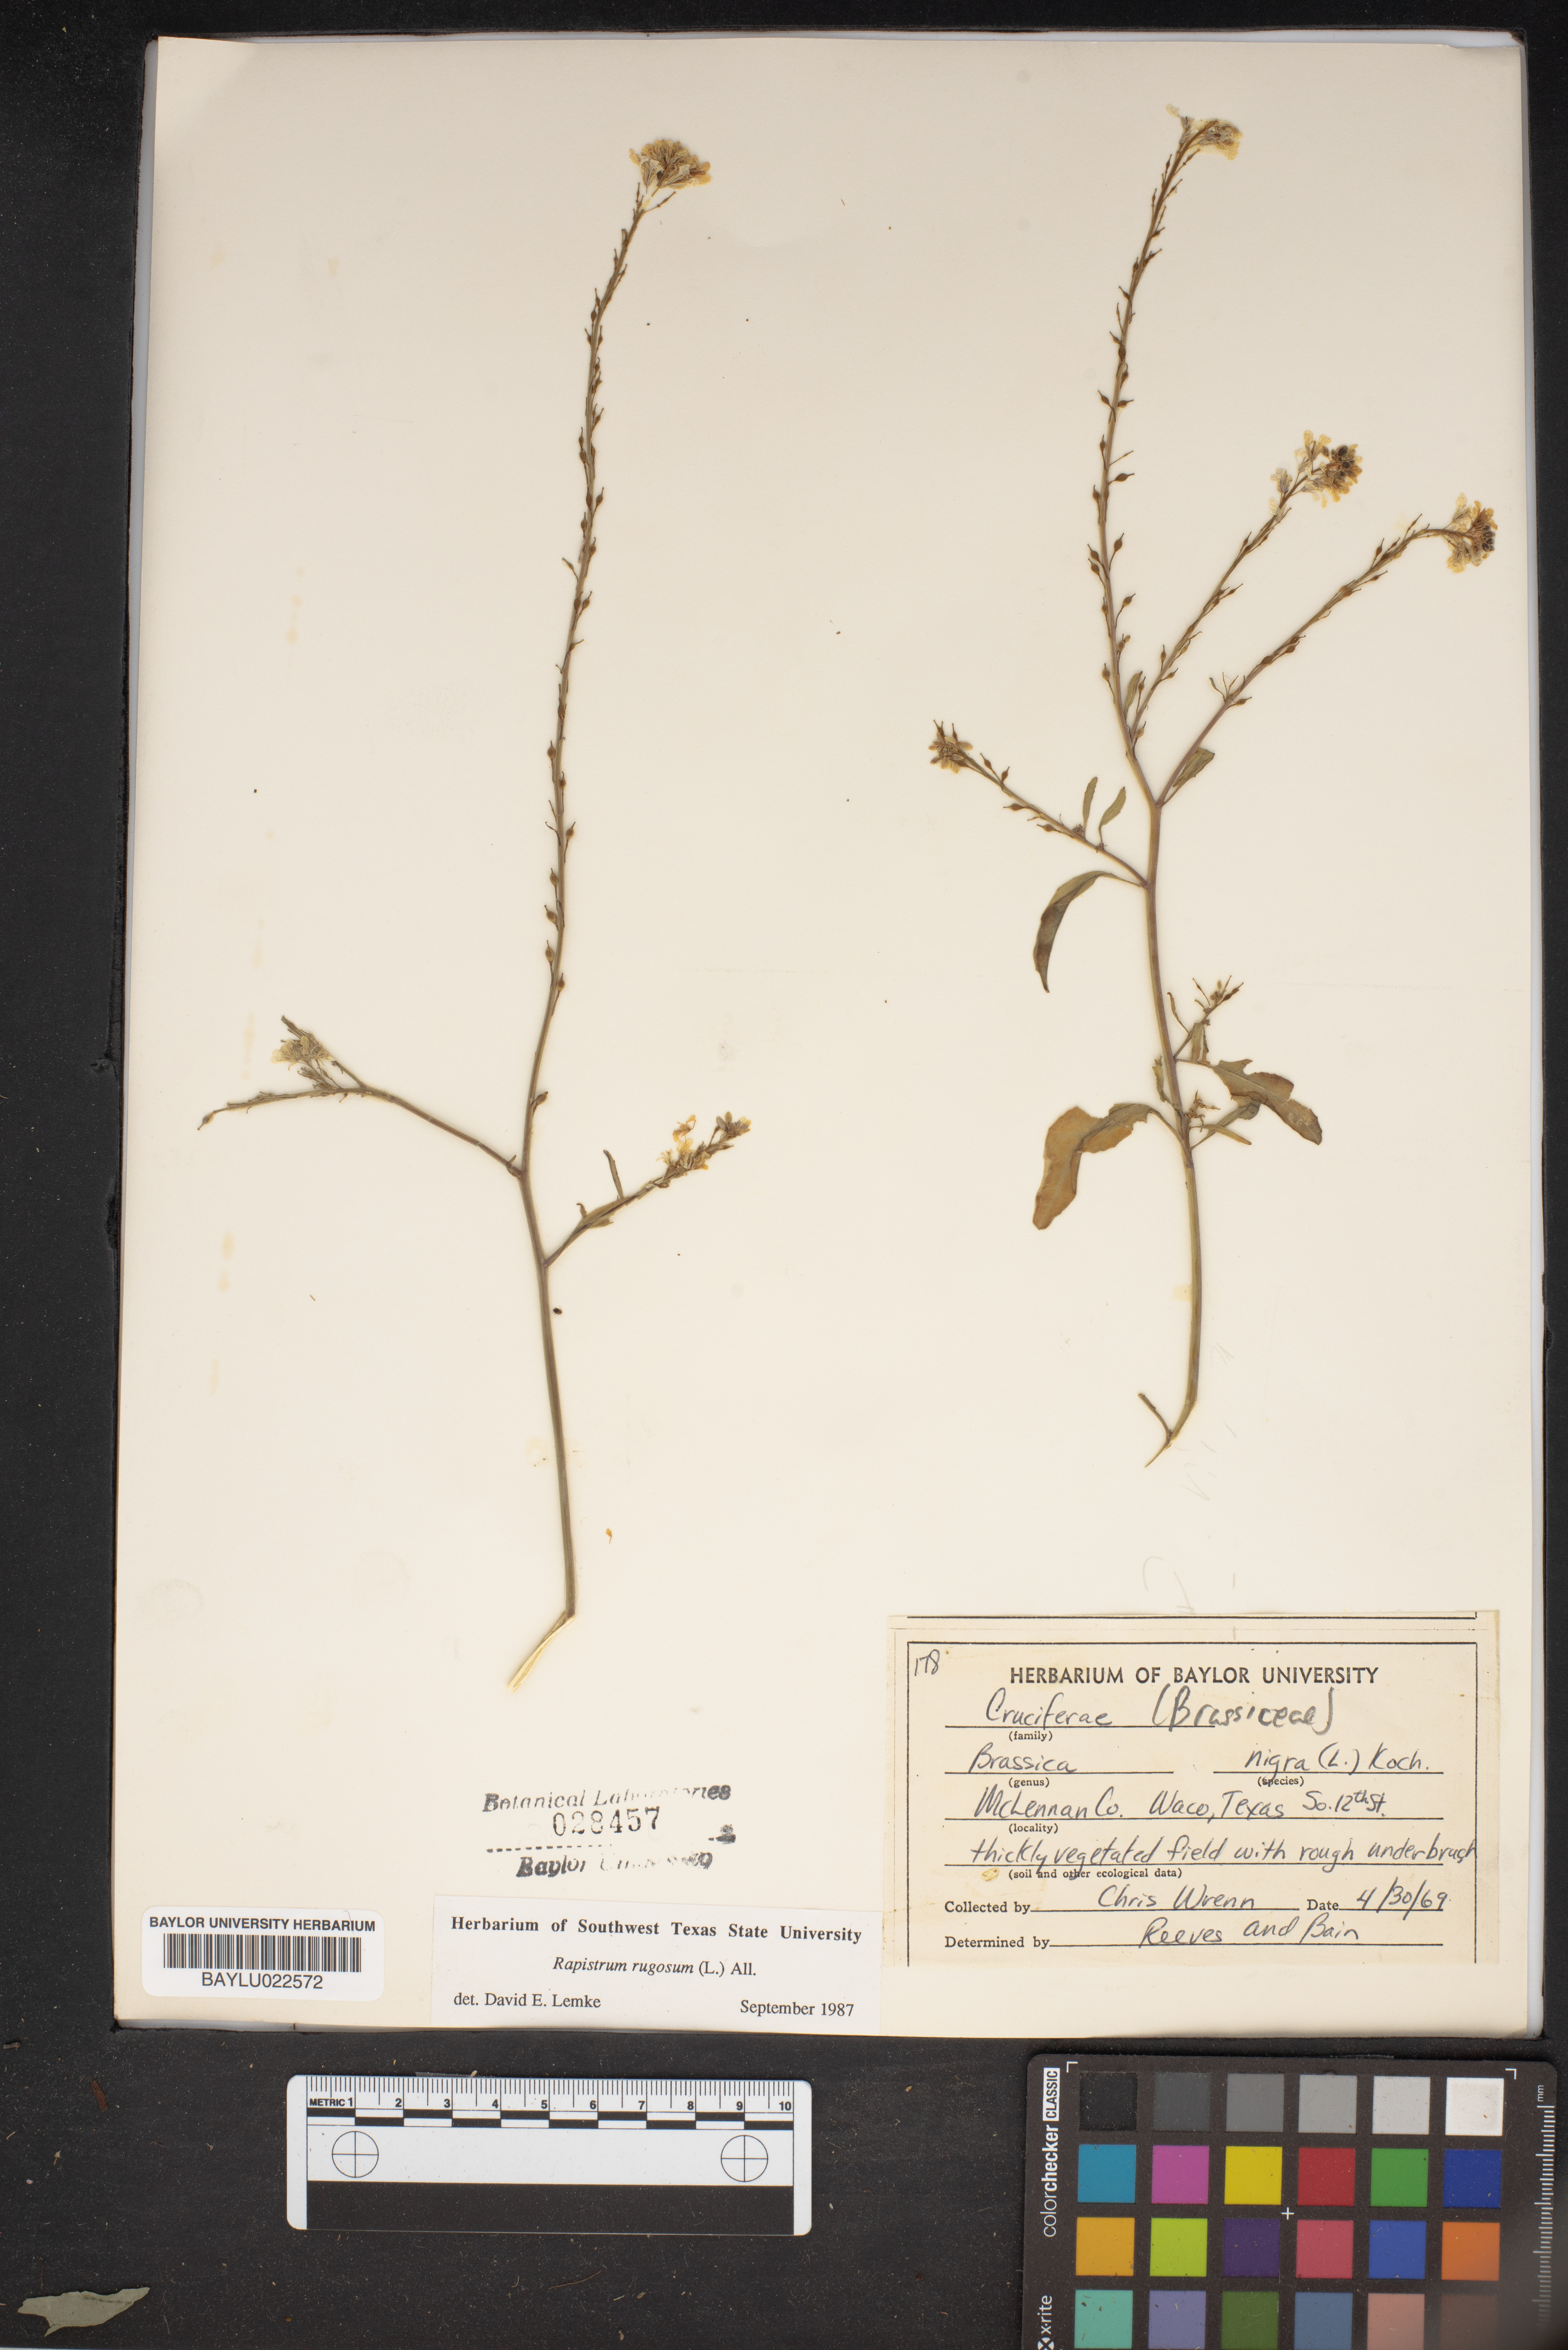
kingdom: Plantae
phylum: Tracheophyta
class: Magnoliopsida
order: Brassicales
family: Brassicaceae
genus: Brassica
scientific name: Brassica nigra
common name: Black mustard
